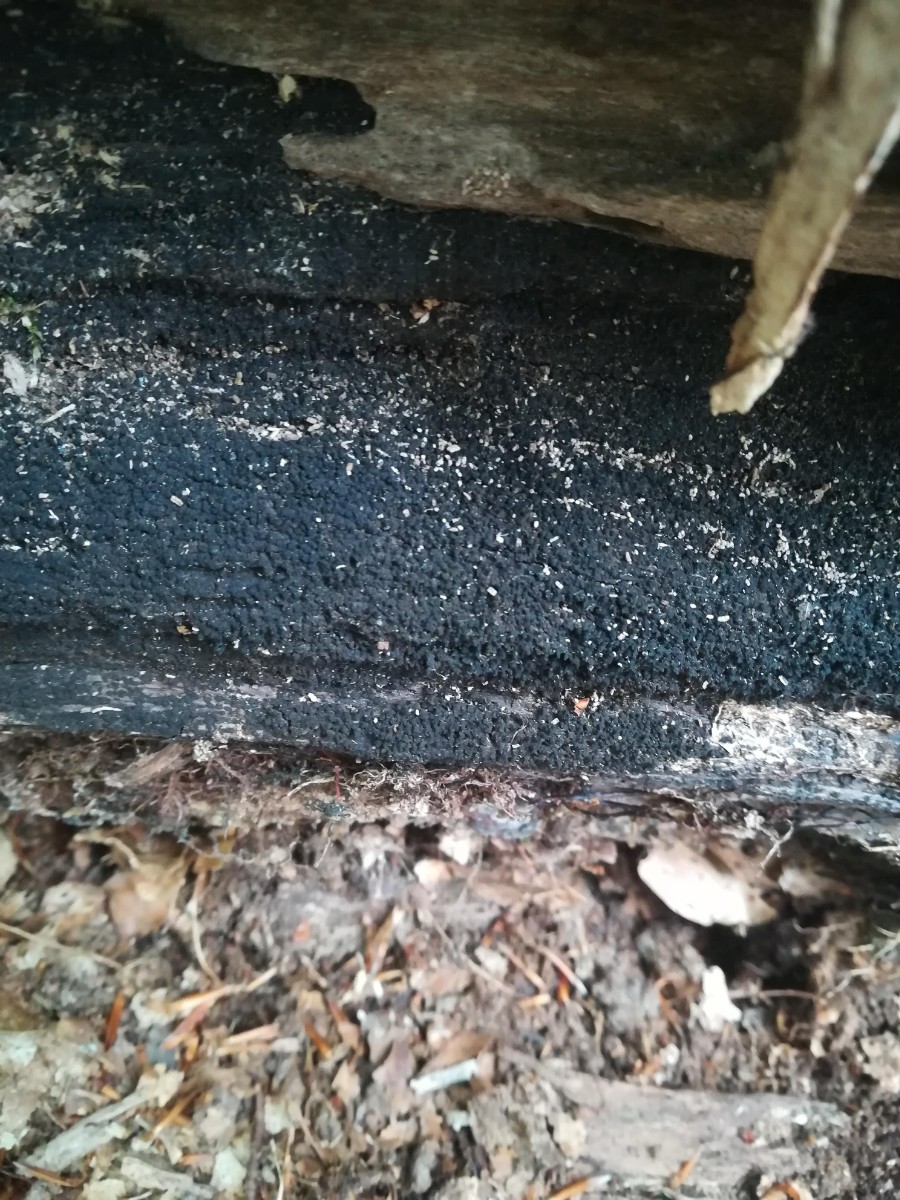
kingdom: Fungi
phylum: Ascomycota
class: Sordariomycetes
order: Xylariales
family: Diatrypaceae
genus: Eutypa
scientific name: Eutypa spinosa
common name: grov kulskorpe
